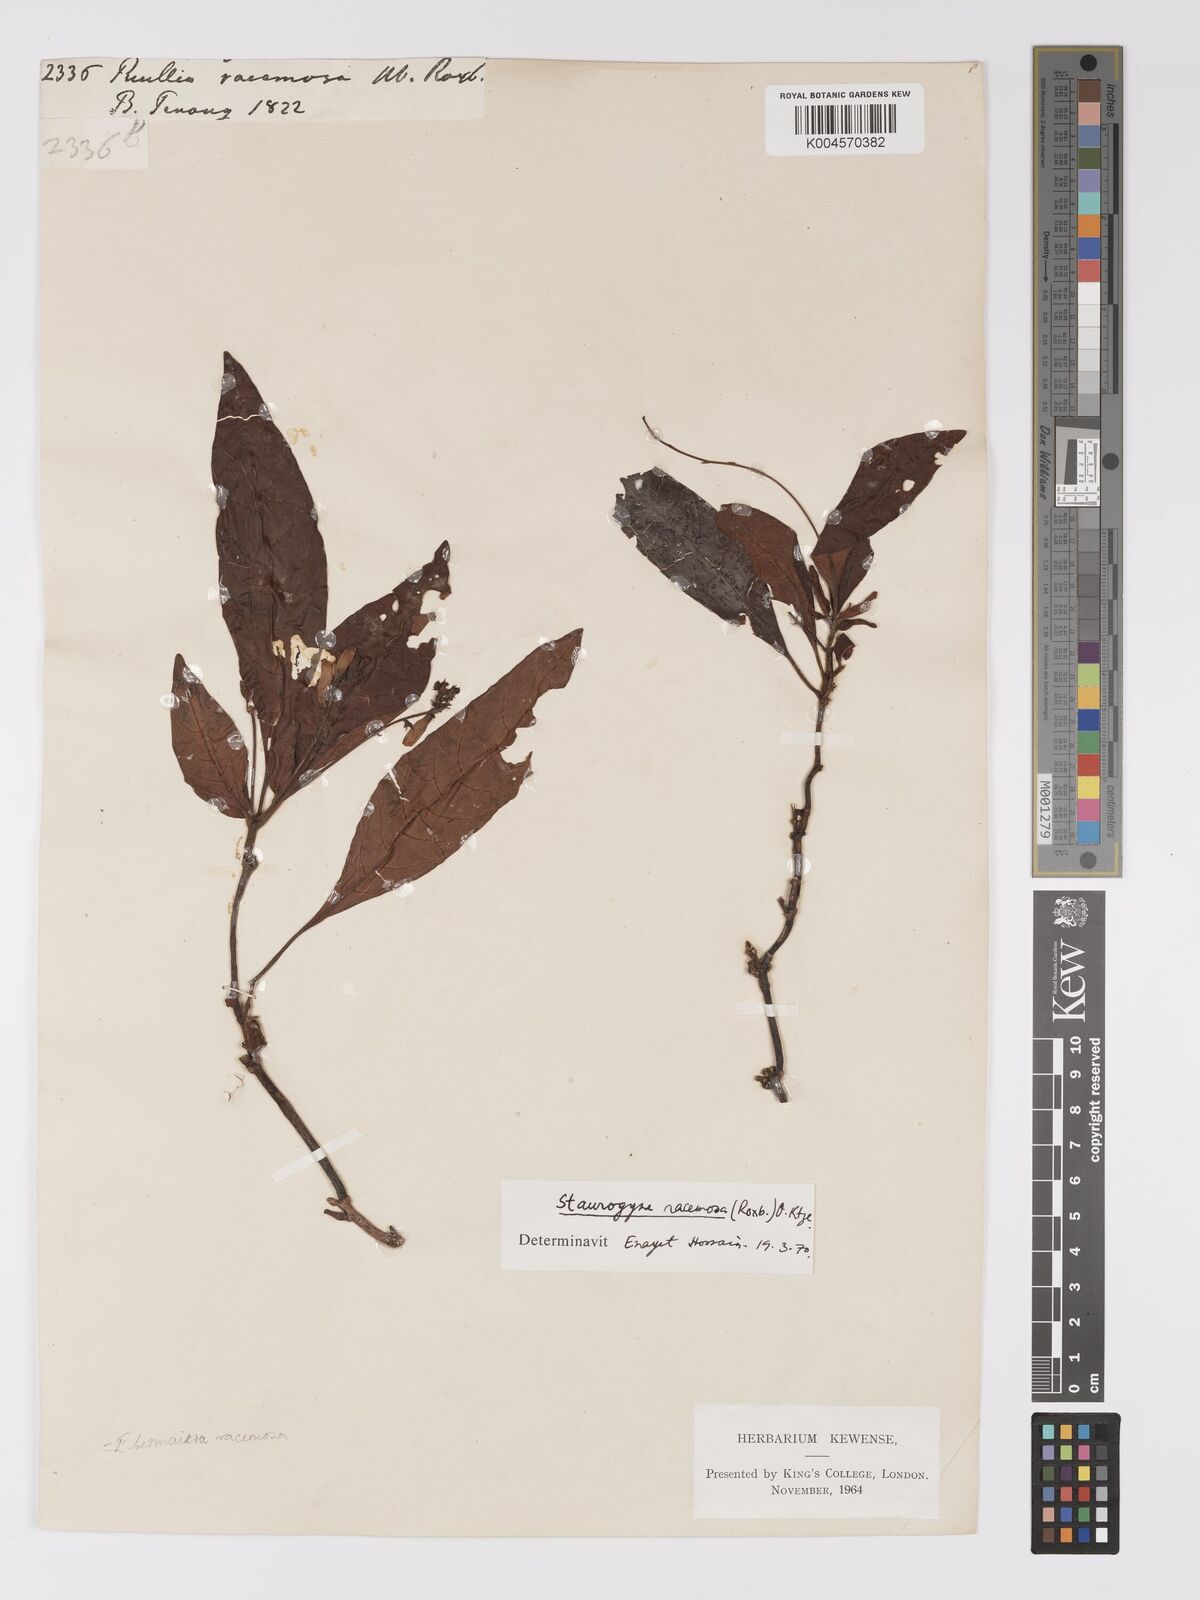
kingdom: Plantae
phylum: Tracheophyta
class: Magnoliopsida
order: Lamiales
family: Acanthaceae
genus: Staurogyne
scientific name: Staurogyne racemosa
